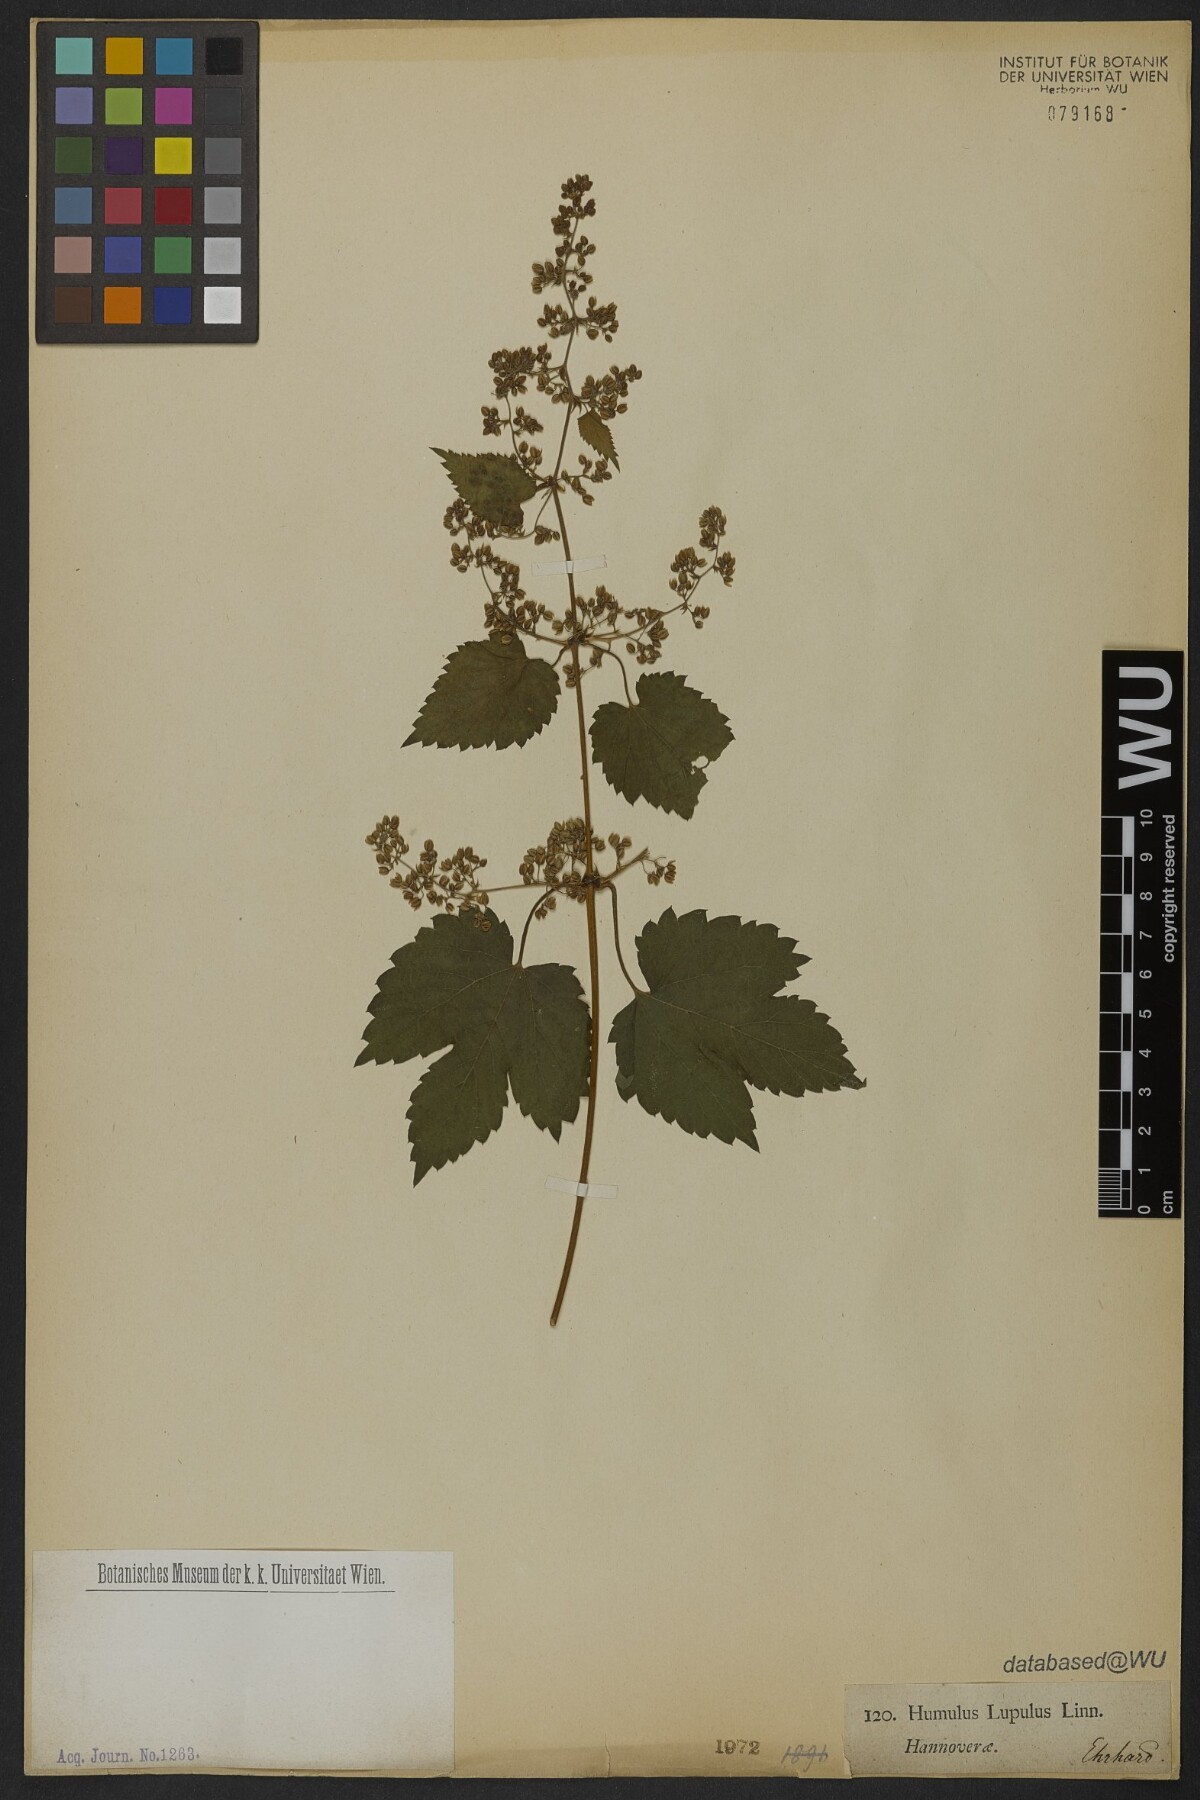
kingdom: Plantae
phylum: Tracheophyta
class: Magnoliopsida
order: Rosales
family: Cannabaceae
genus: Humulus
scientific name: Humulus lupulus
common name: Hop
